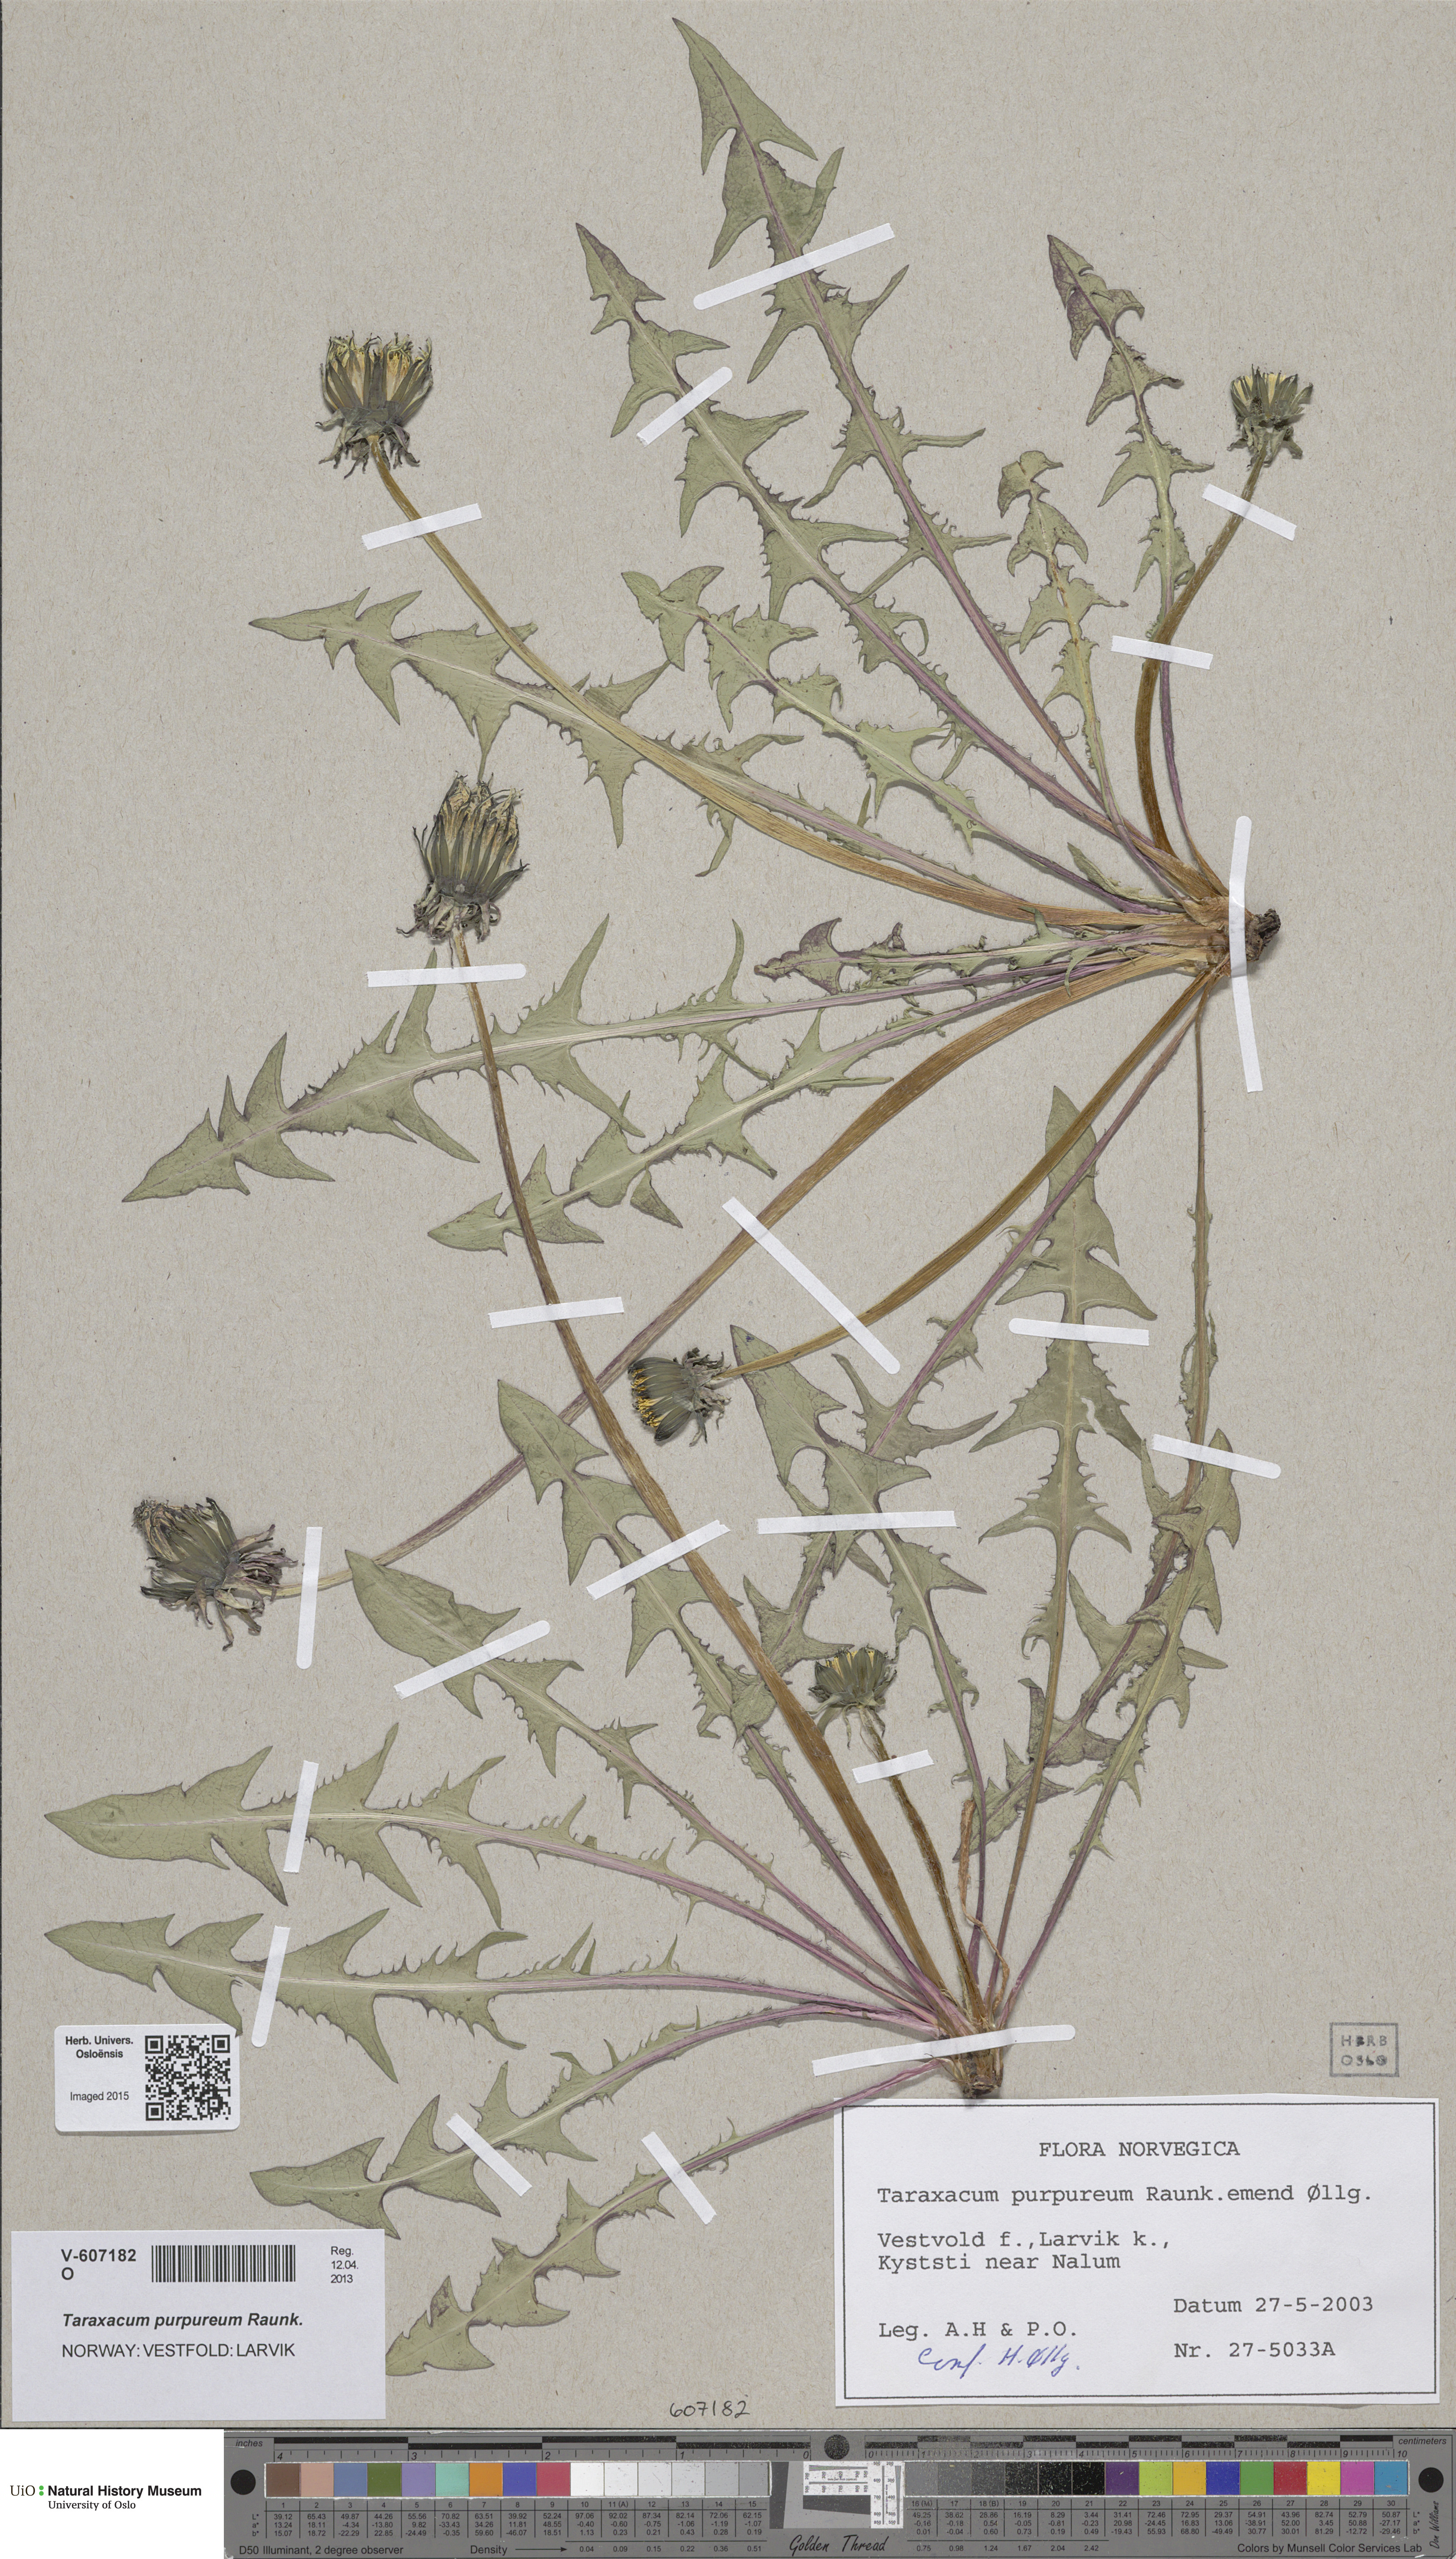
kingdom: Plantae
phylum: Tracheophyta
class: Magnoliopsida
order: Asterales
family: Asteraceae
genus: Taraxacum
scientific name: Taraxacum purpureum
